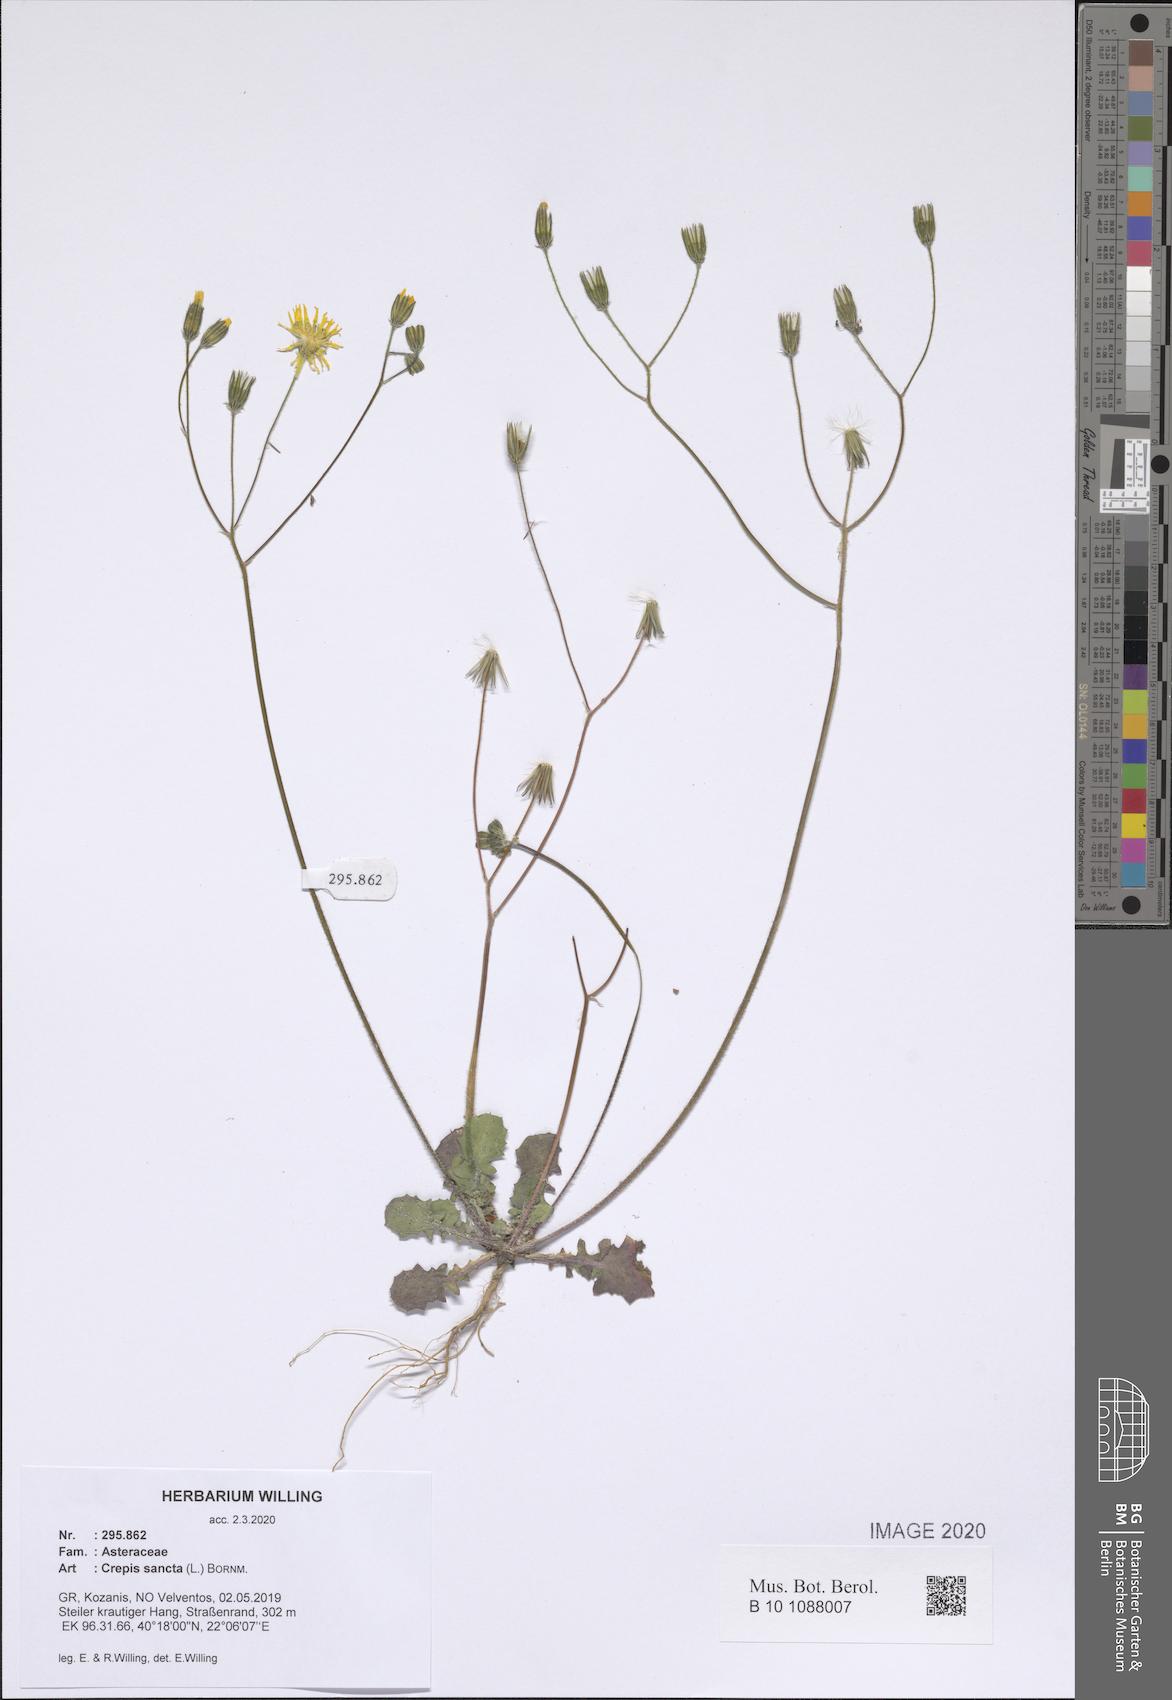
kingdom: Plantae
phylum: Tracheophyta
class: Magnoliopsida
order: Asterales
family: Asteraceae
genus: Crepis
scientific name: Crepis sancta
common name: Hawk's-beard
